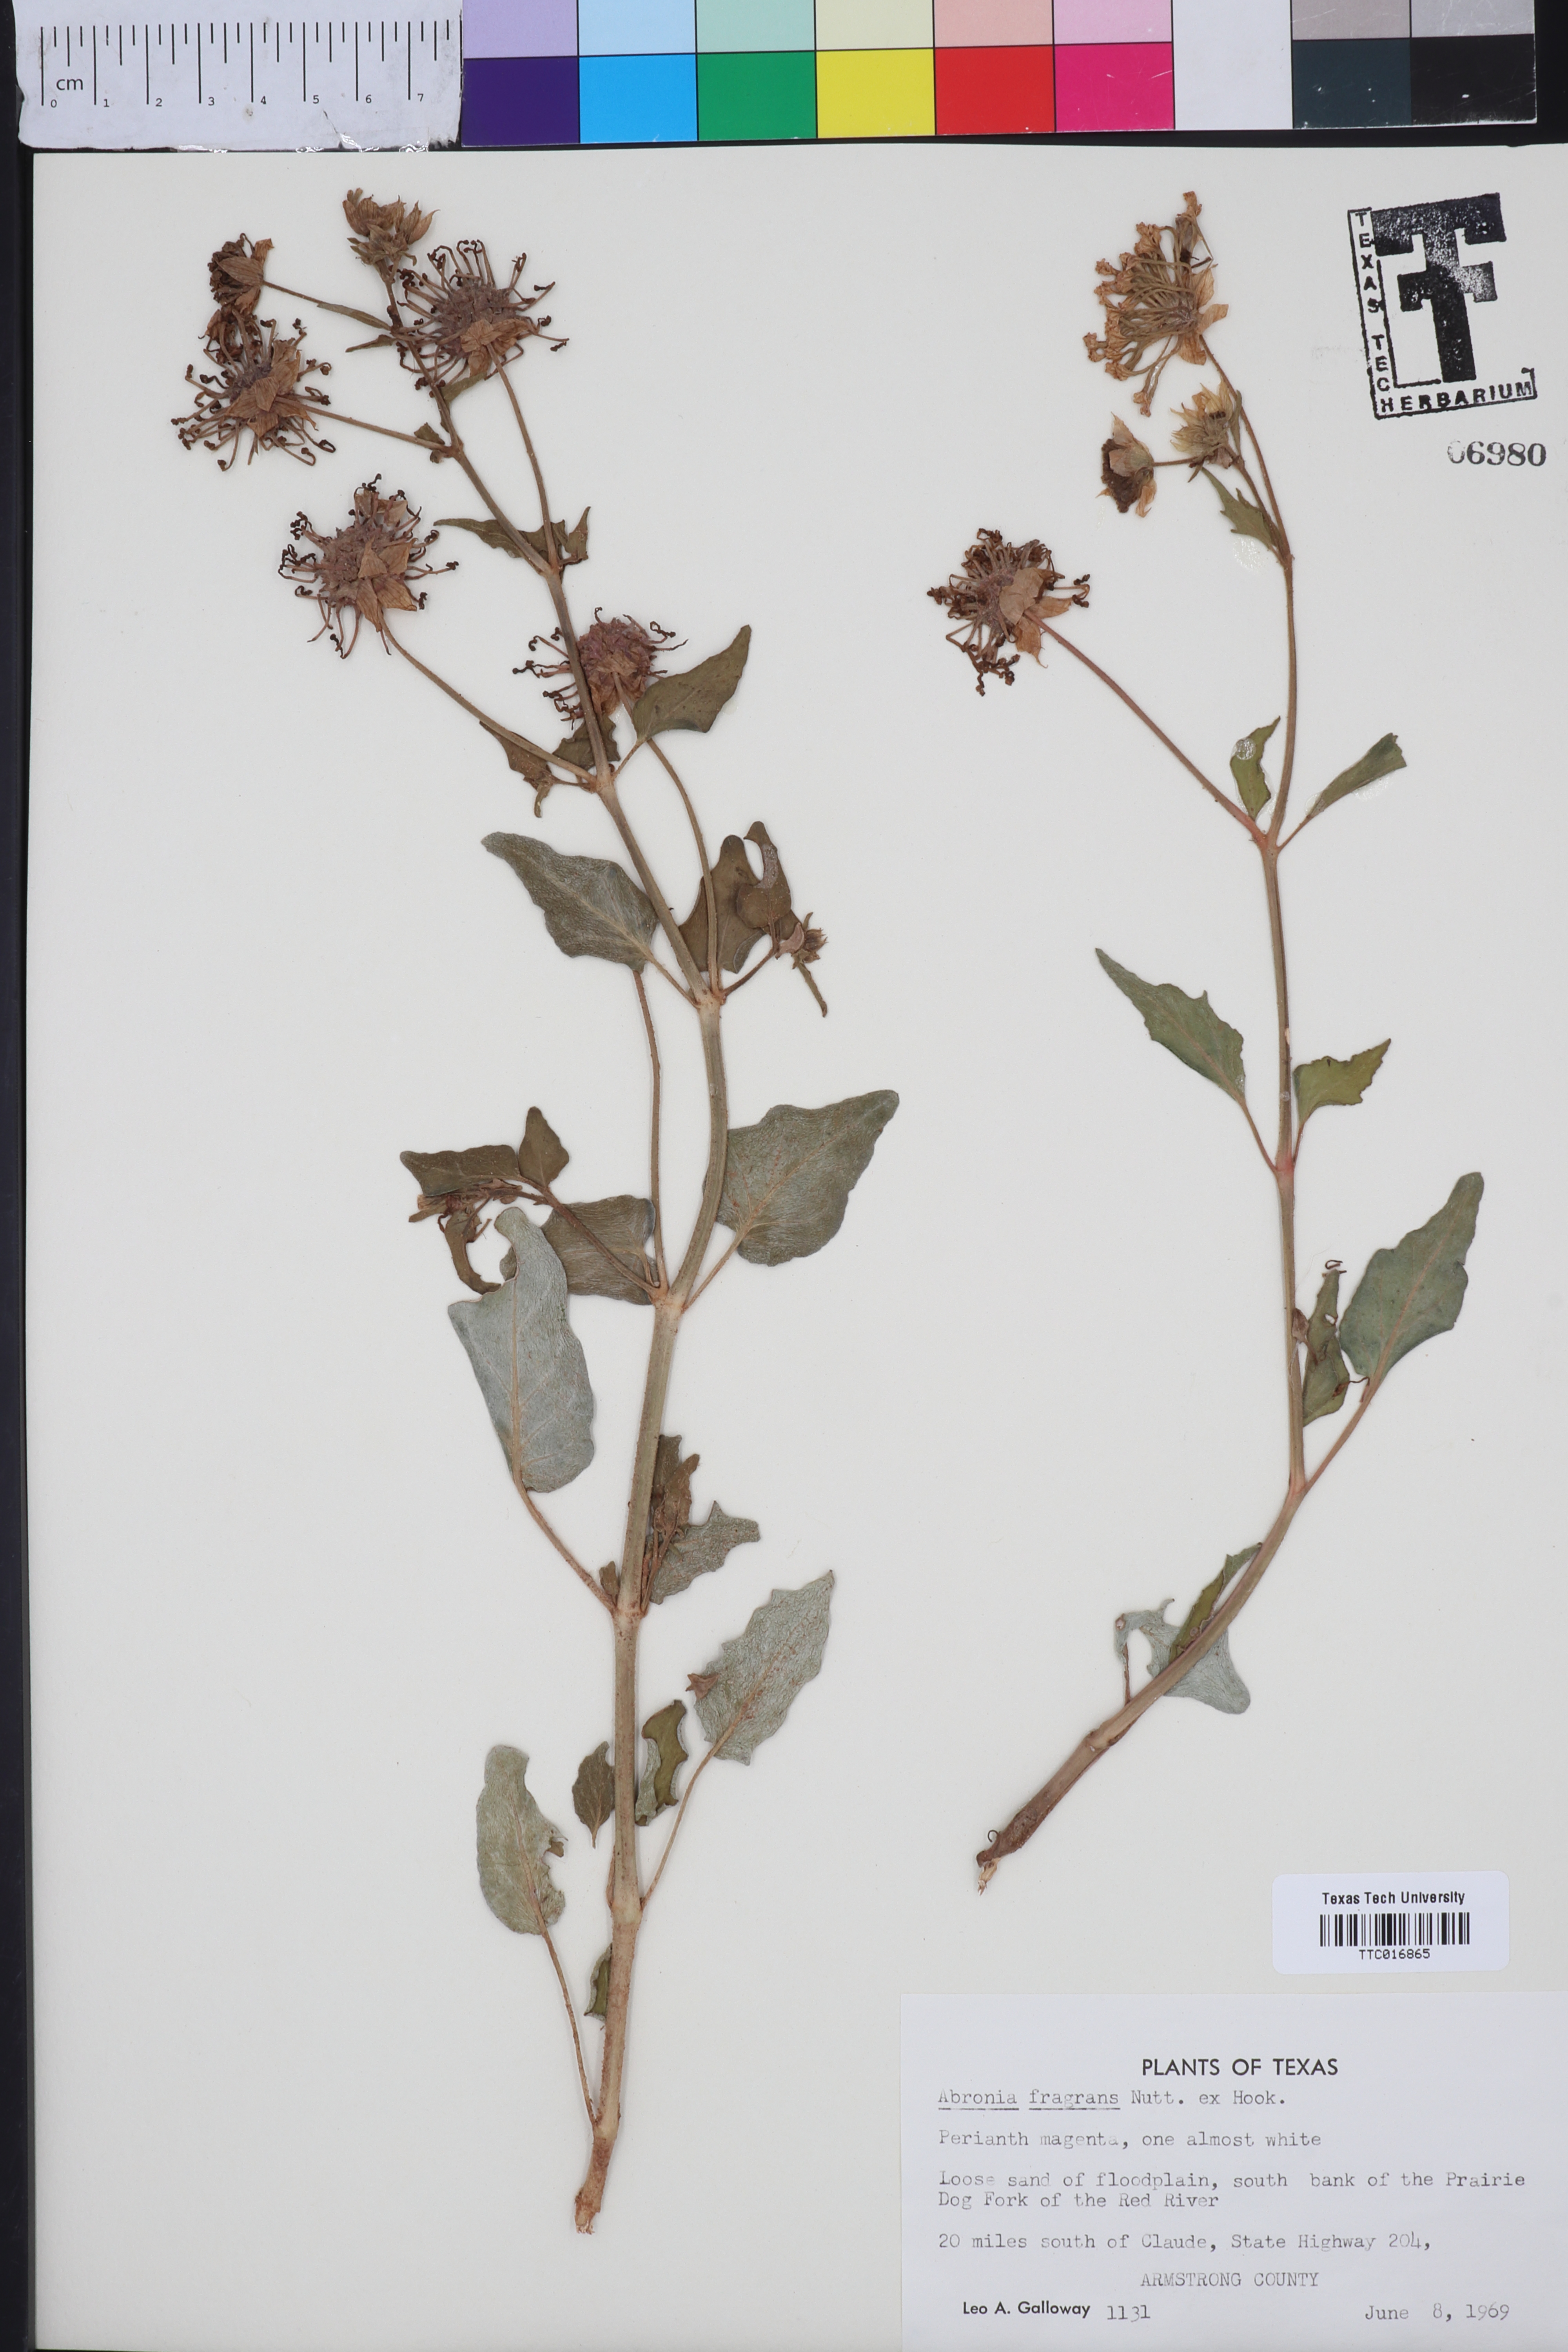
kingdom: Plantae
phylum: Tracheophyta
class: Magnoliopsida
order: Caryophyllales
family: Nyctaginaceae
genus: Abronia
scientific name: Abronia fragrans
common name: Fragrant sand-verbena
